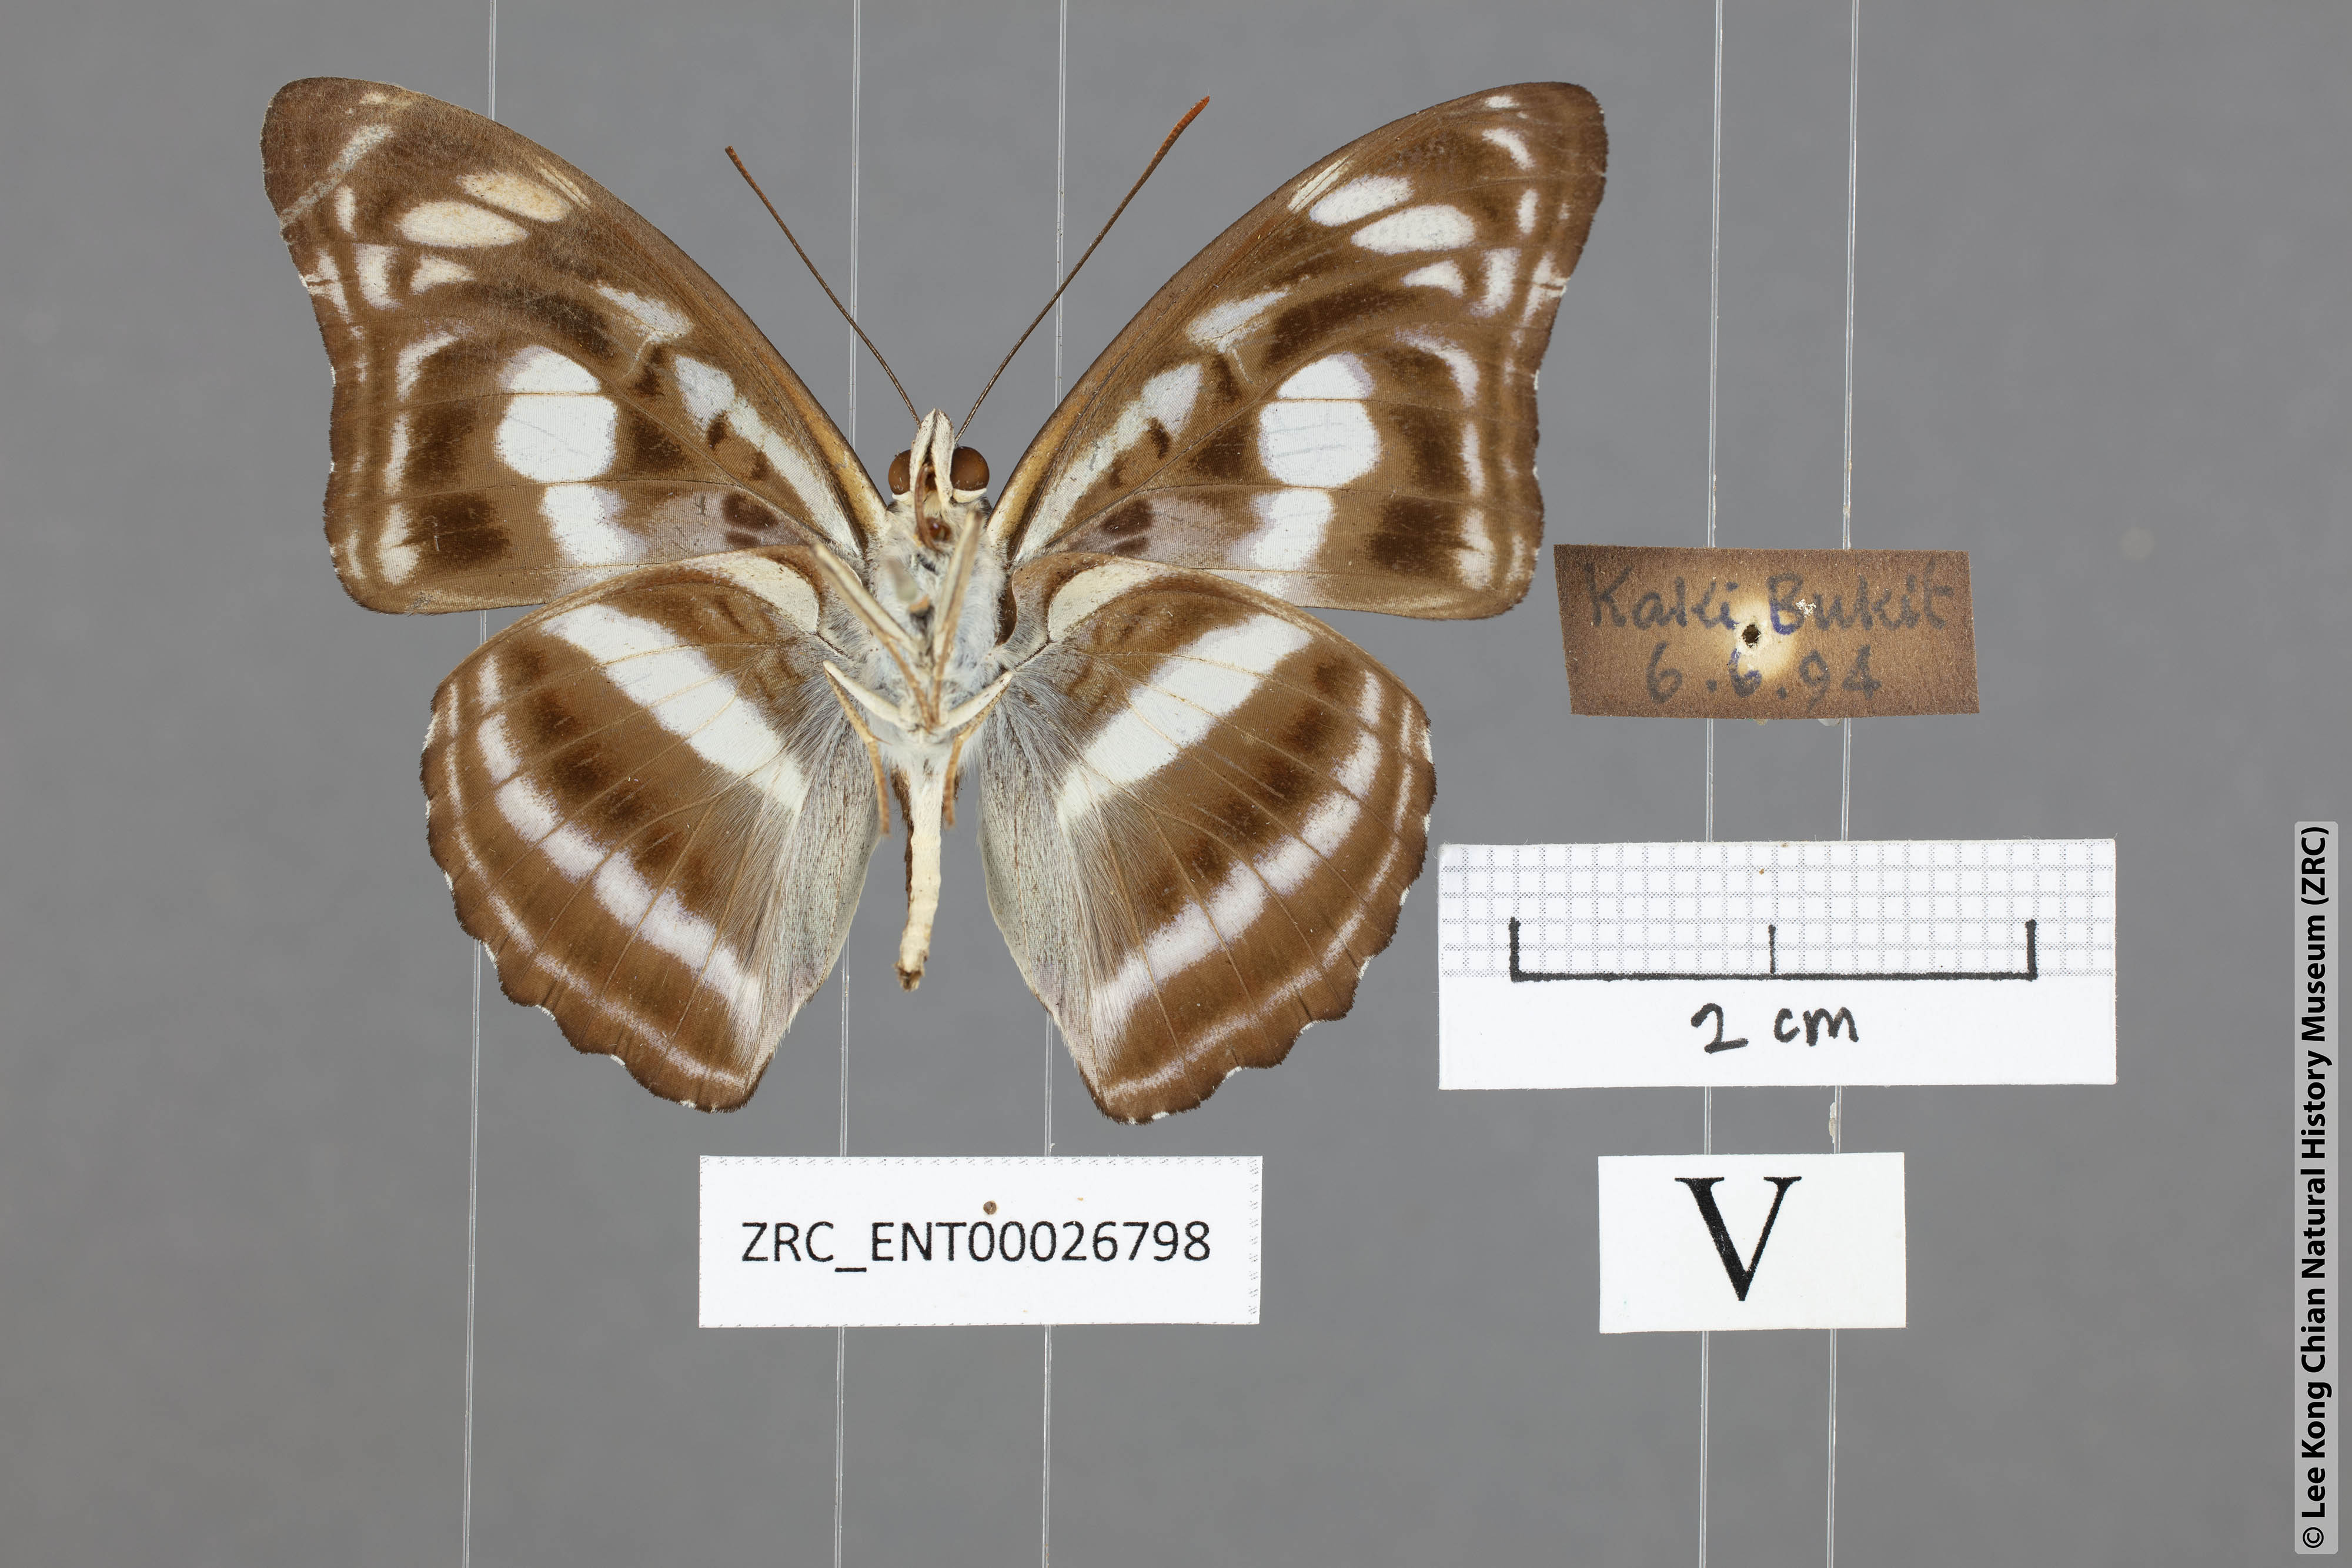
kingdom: Animalia
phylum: Arthropoda
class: Insecta
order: Lepidoptera
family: Nymphalidae
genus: Parathyma
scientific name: Parathyma selenophora
